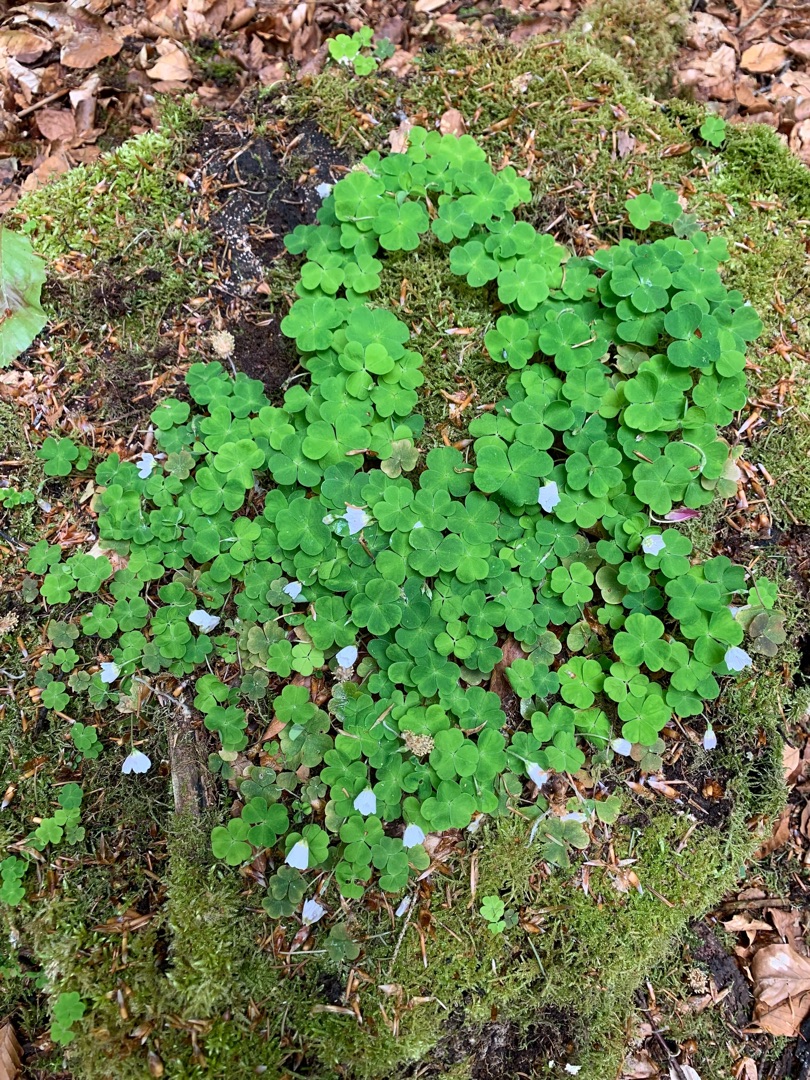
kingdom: Plantae
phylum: Tracheophyta
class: Magnoliopsida
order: Oxalidales
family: Oxalidaceae
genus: Oxalis
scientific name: Oxalis acetosella
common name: Skovsyre
